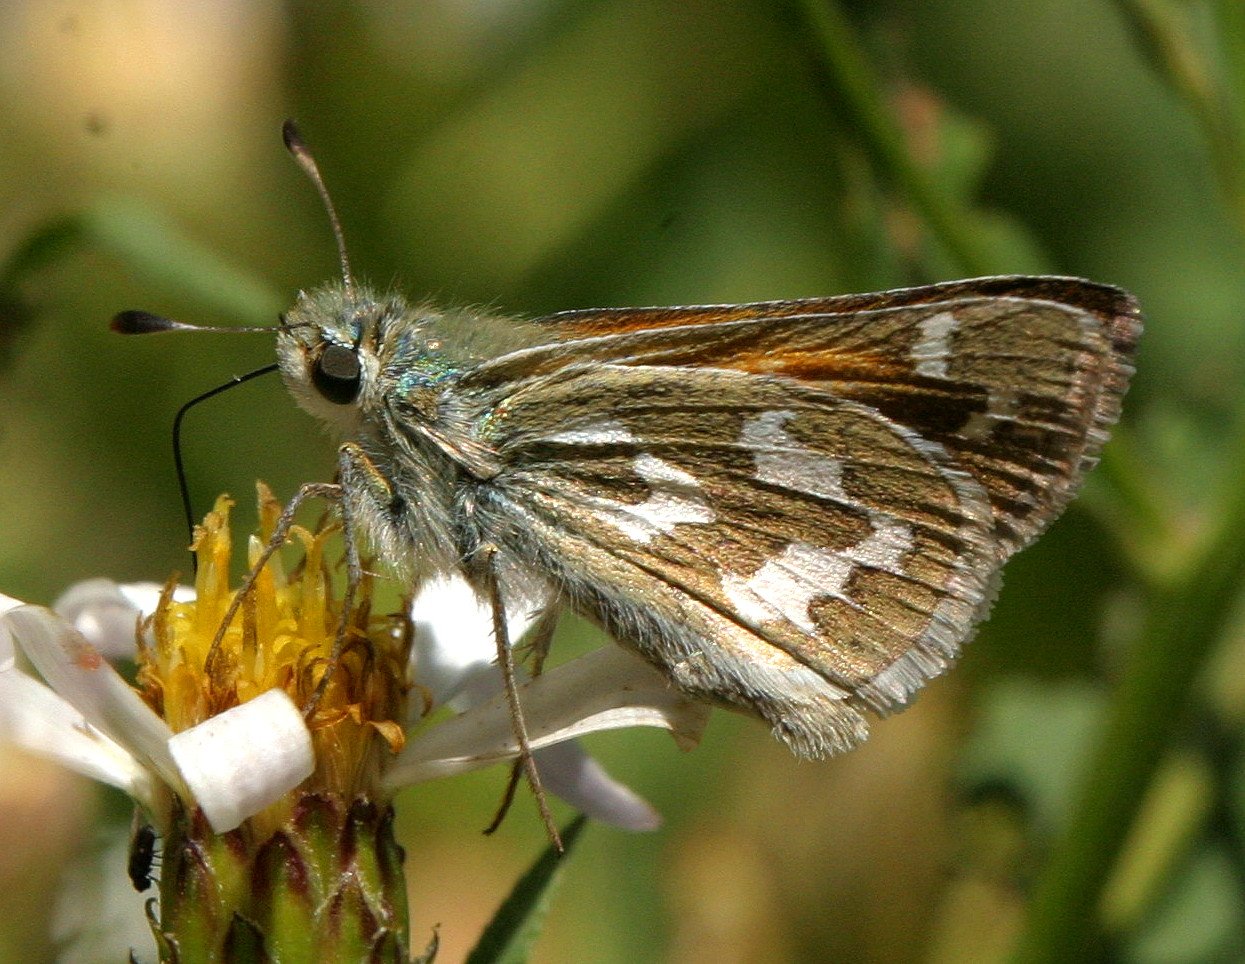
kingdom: Animalia
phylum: Arthropoda
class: Insecta
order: Lepidoptera
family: Hesperiidae
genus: Hesperia
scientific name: Hesperia comma
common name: Western Branded Skipper
